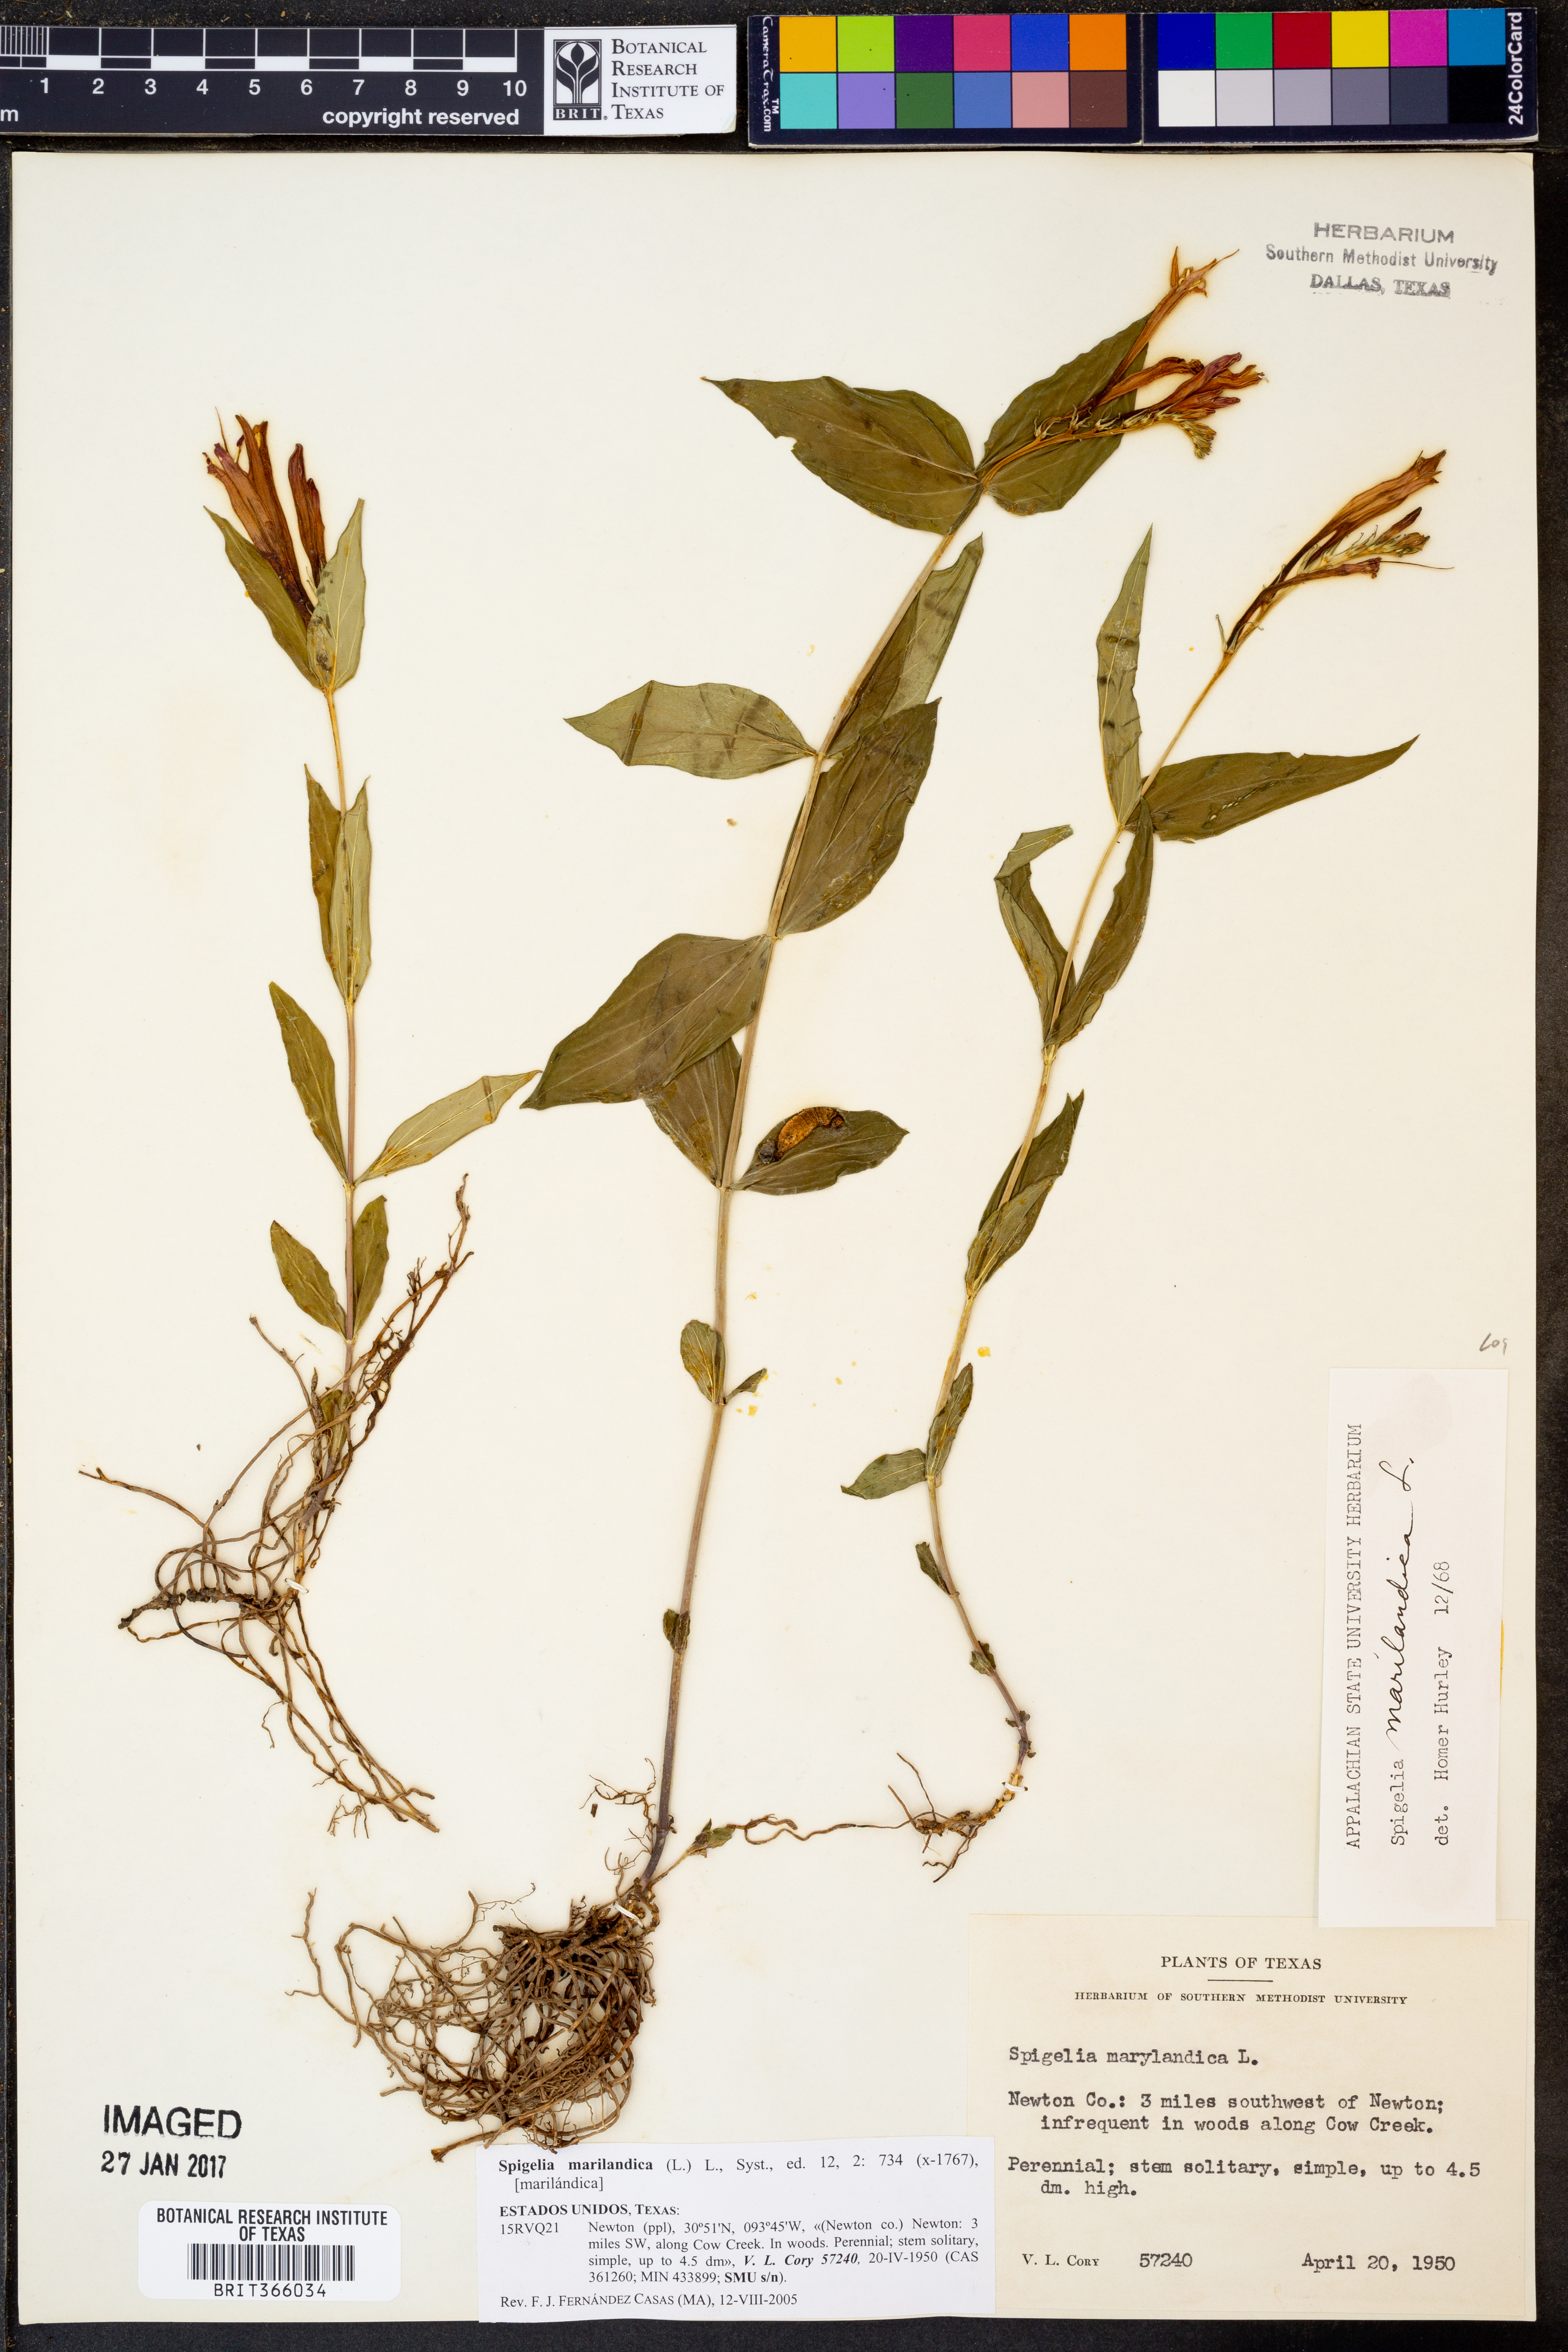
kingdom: Plantae
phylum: Tracheophyta
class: Magnoliopsida
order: Gentianales
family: Loganiaceae
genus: Spigelia
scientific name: Spigelia marilandica
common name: Indian-pink
